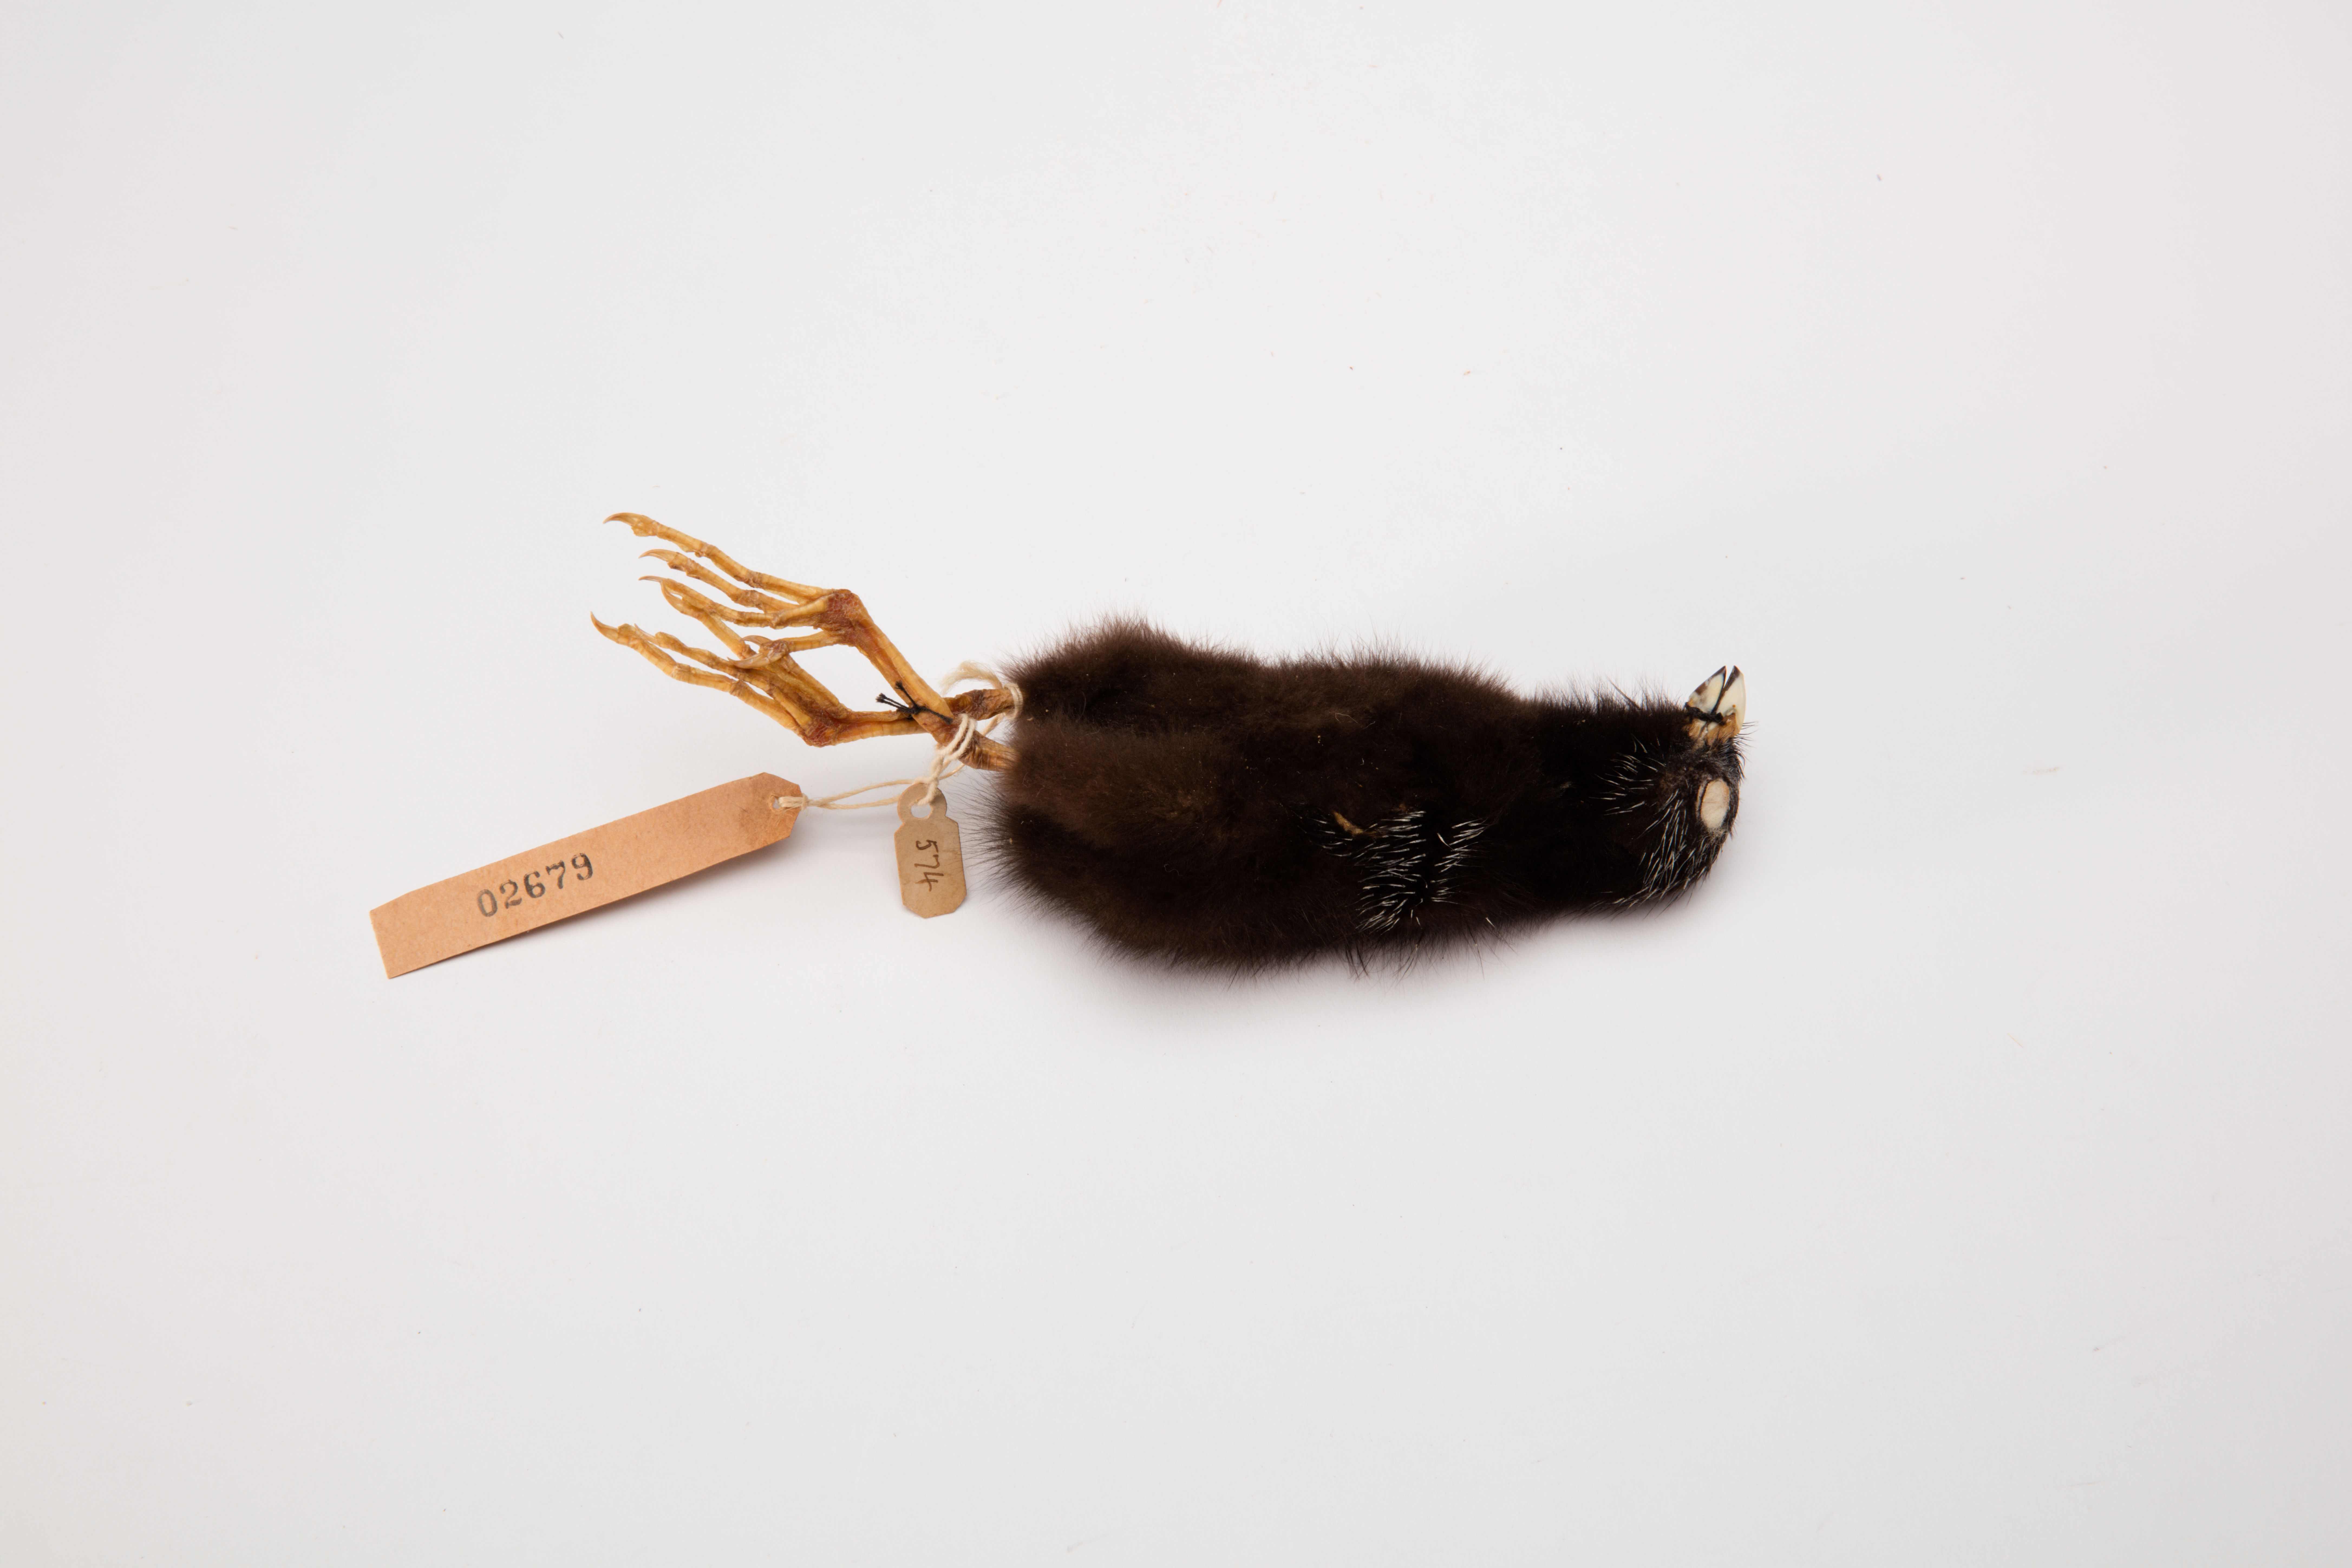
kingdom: Animalia
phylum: Chordata
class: Aves
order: Gruiformes
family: Rallidae
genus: Porphyrio
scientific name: Porphyrio melanotus
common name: Australasian swamphen
